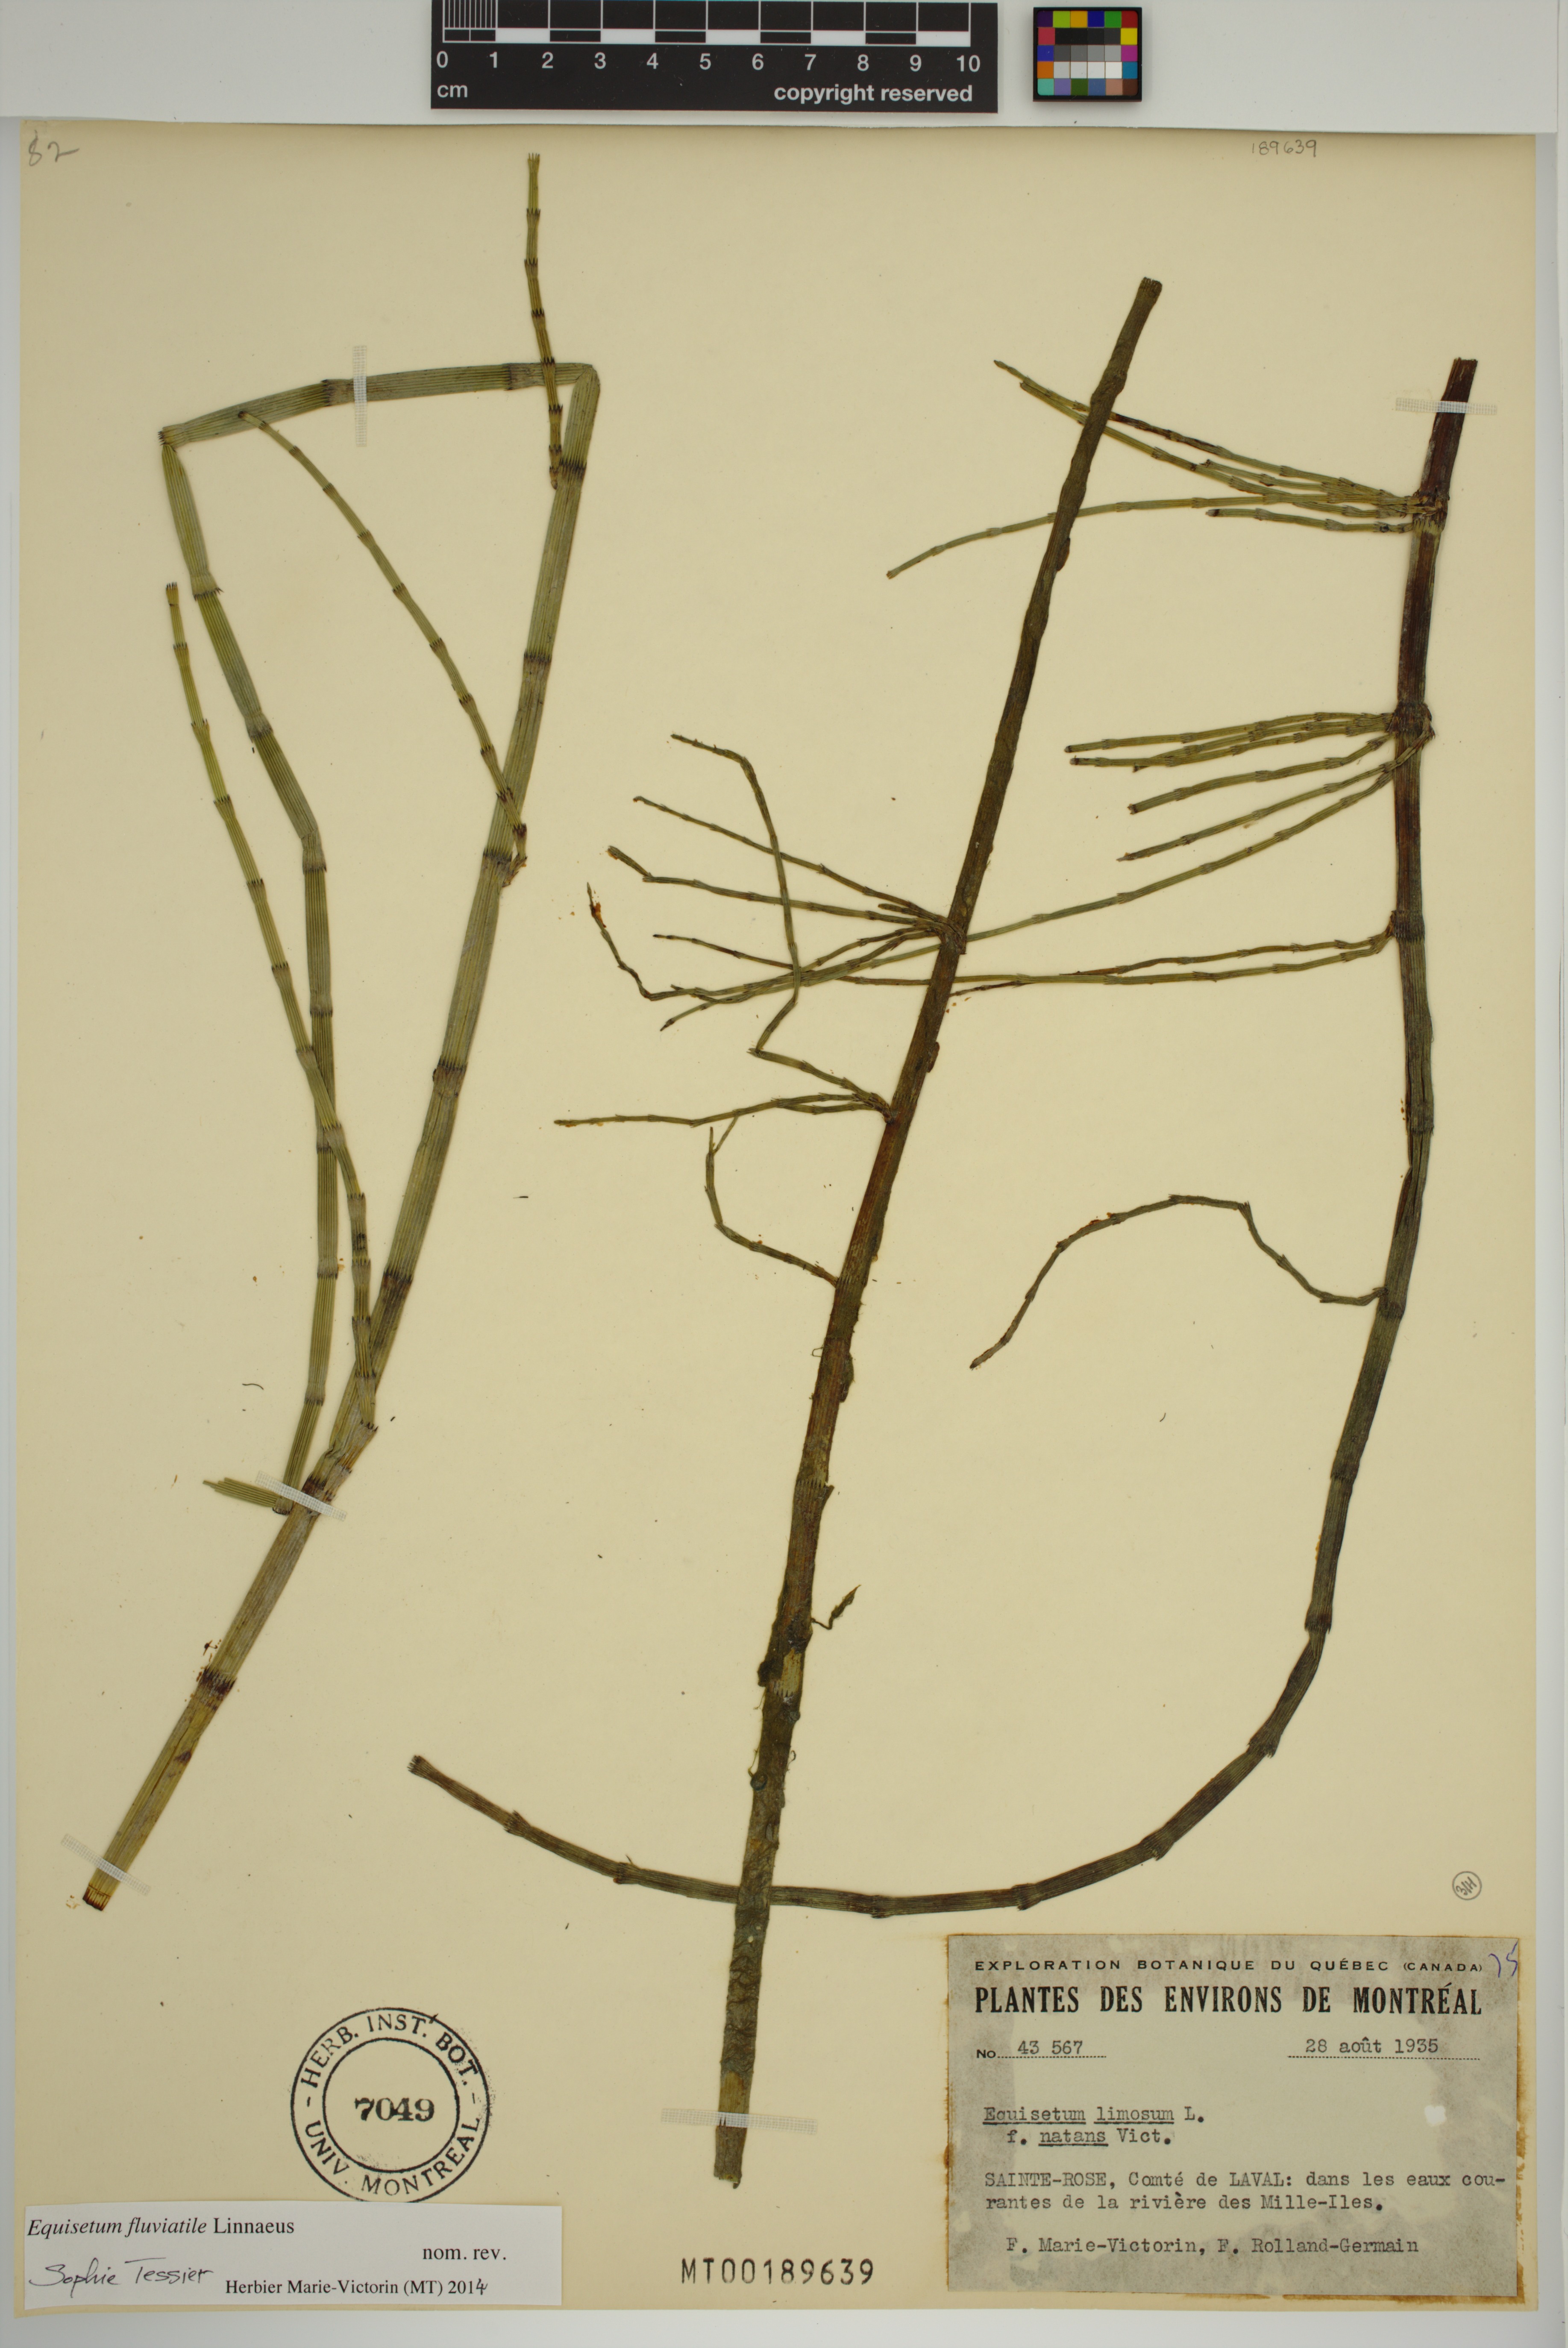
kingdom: Plantae
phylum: Tracheophyta
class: Polypodiopsida
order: Equisetales
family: Equisetaceae
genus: Equisetum
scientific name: Equisetum fluviatile
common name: Water horsetail
